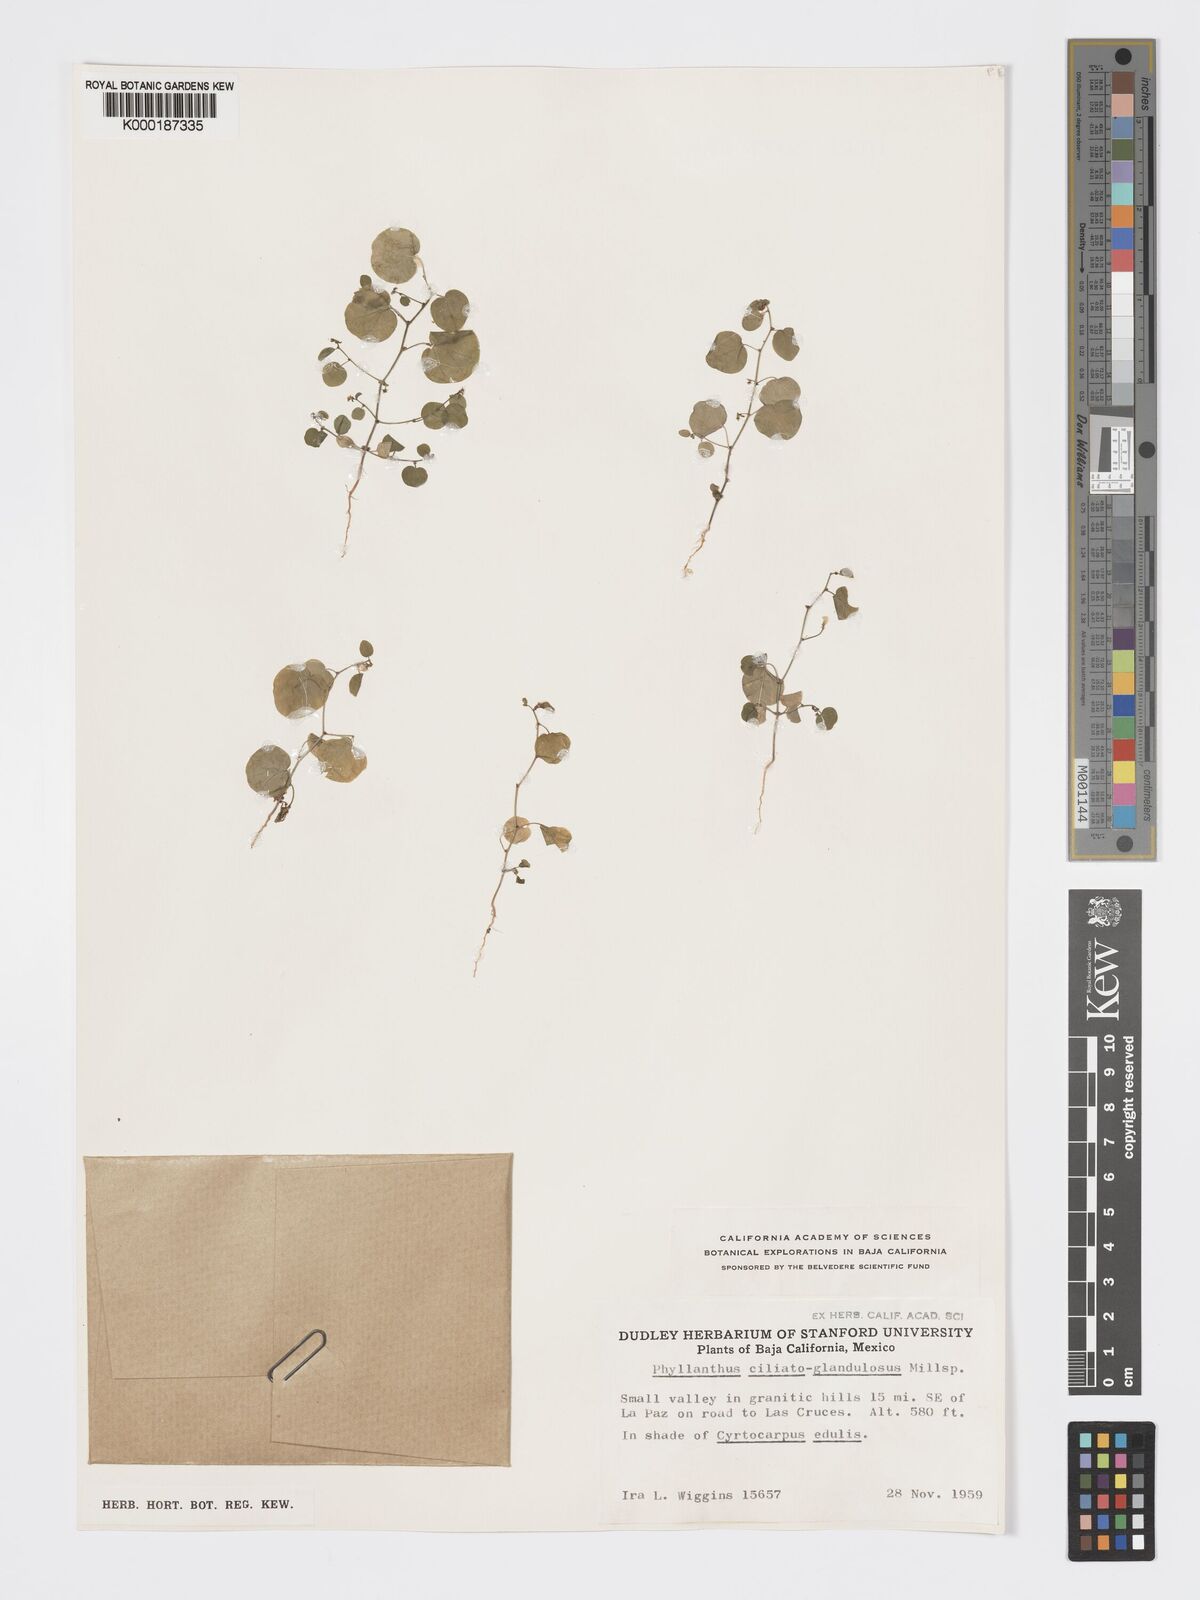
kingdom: Plantae
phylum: Tracheophyta
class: Magnoliopsida
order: Malpighiales
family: Phyllanthaceae
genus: Andrachne
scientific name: Andrachne microphylla
